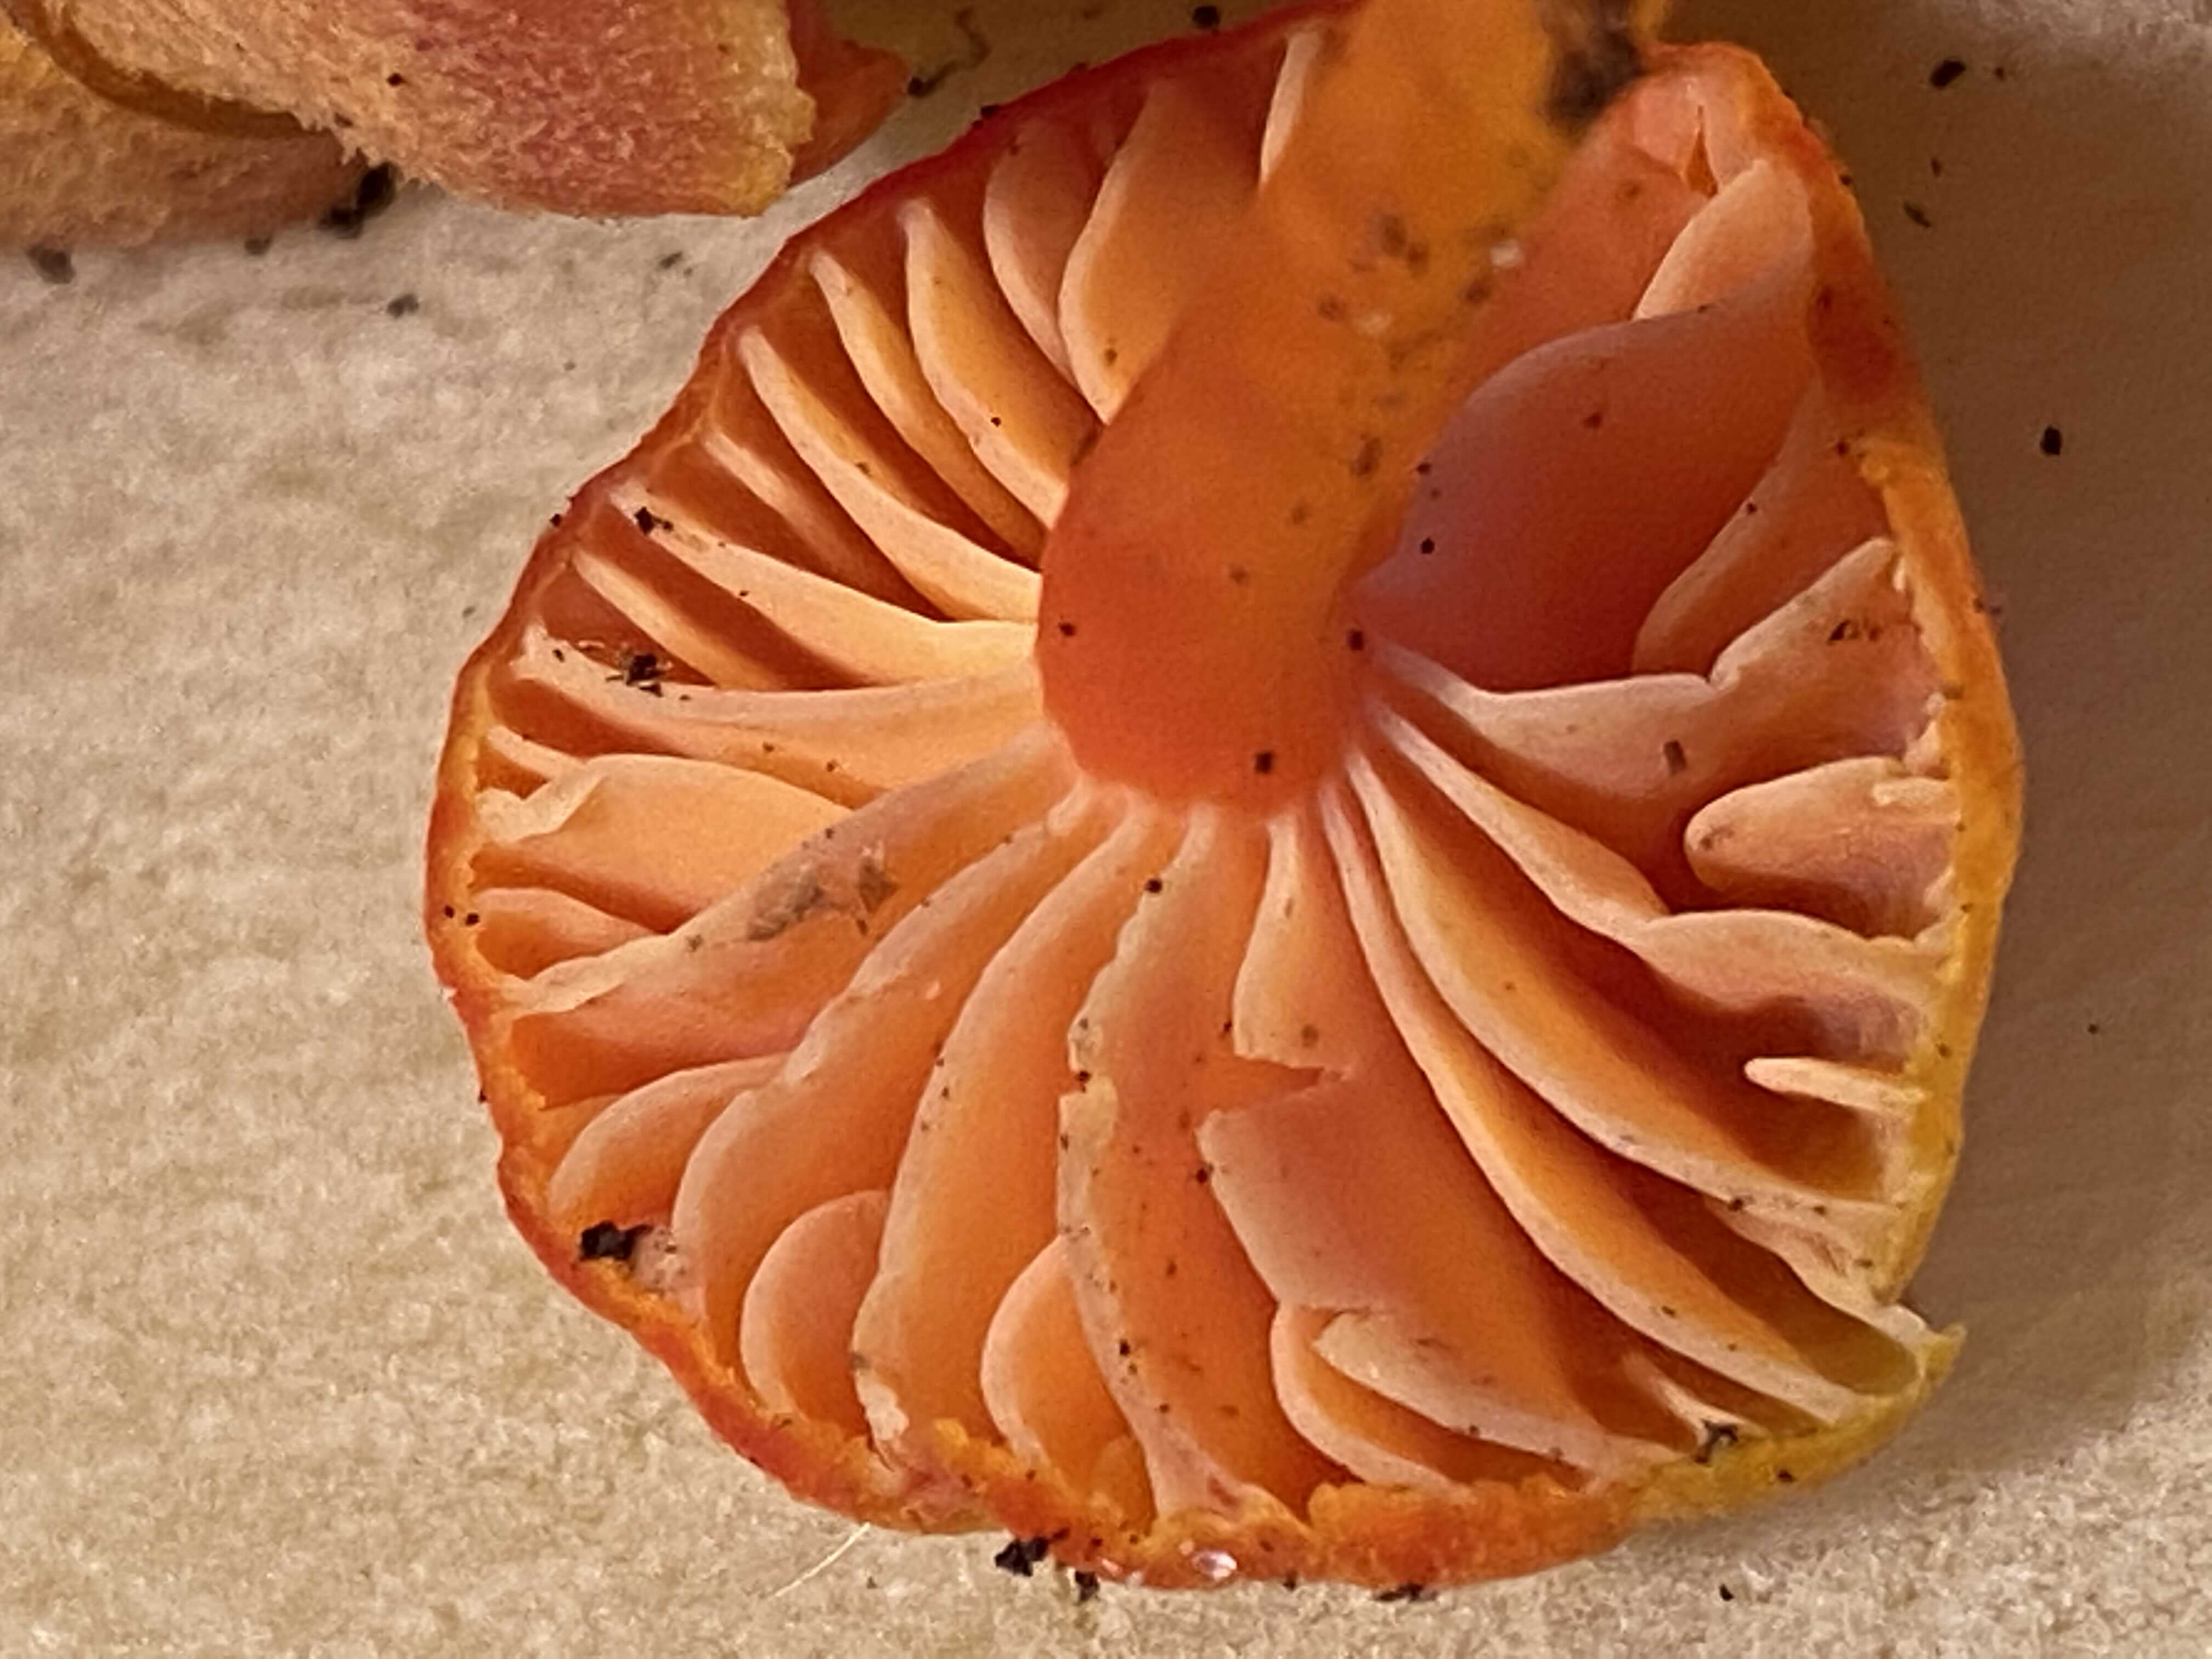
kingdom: Fungi
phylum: Basidiomycota
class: Agaricomycetes
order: Agaricales
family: Hygrophoraceae
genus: Hygrocybe
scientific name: Hygrocybe miniata
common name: mønje-vokshat
